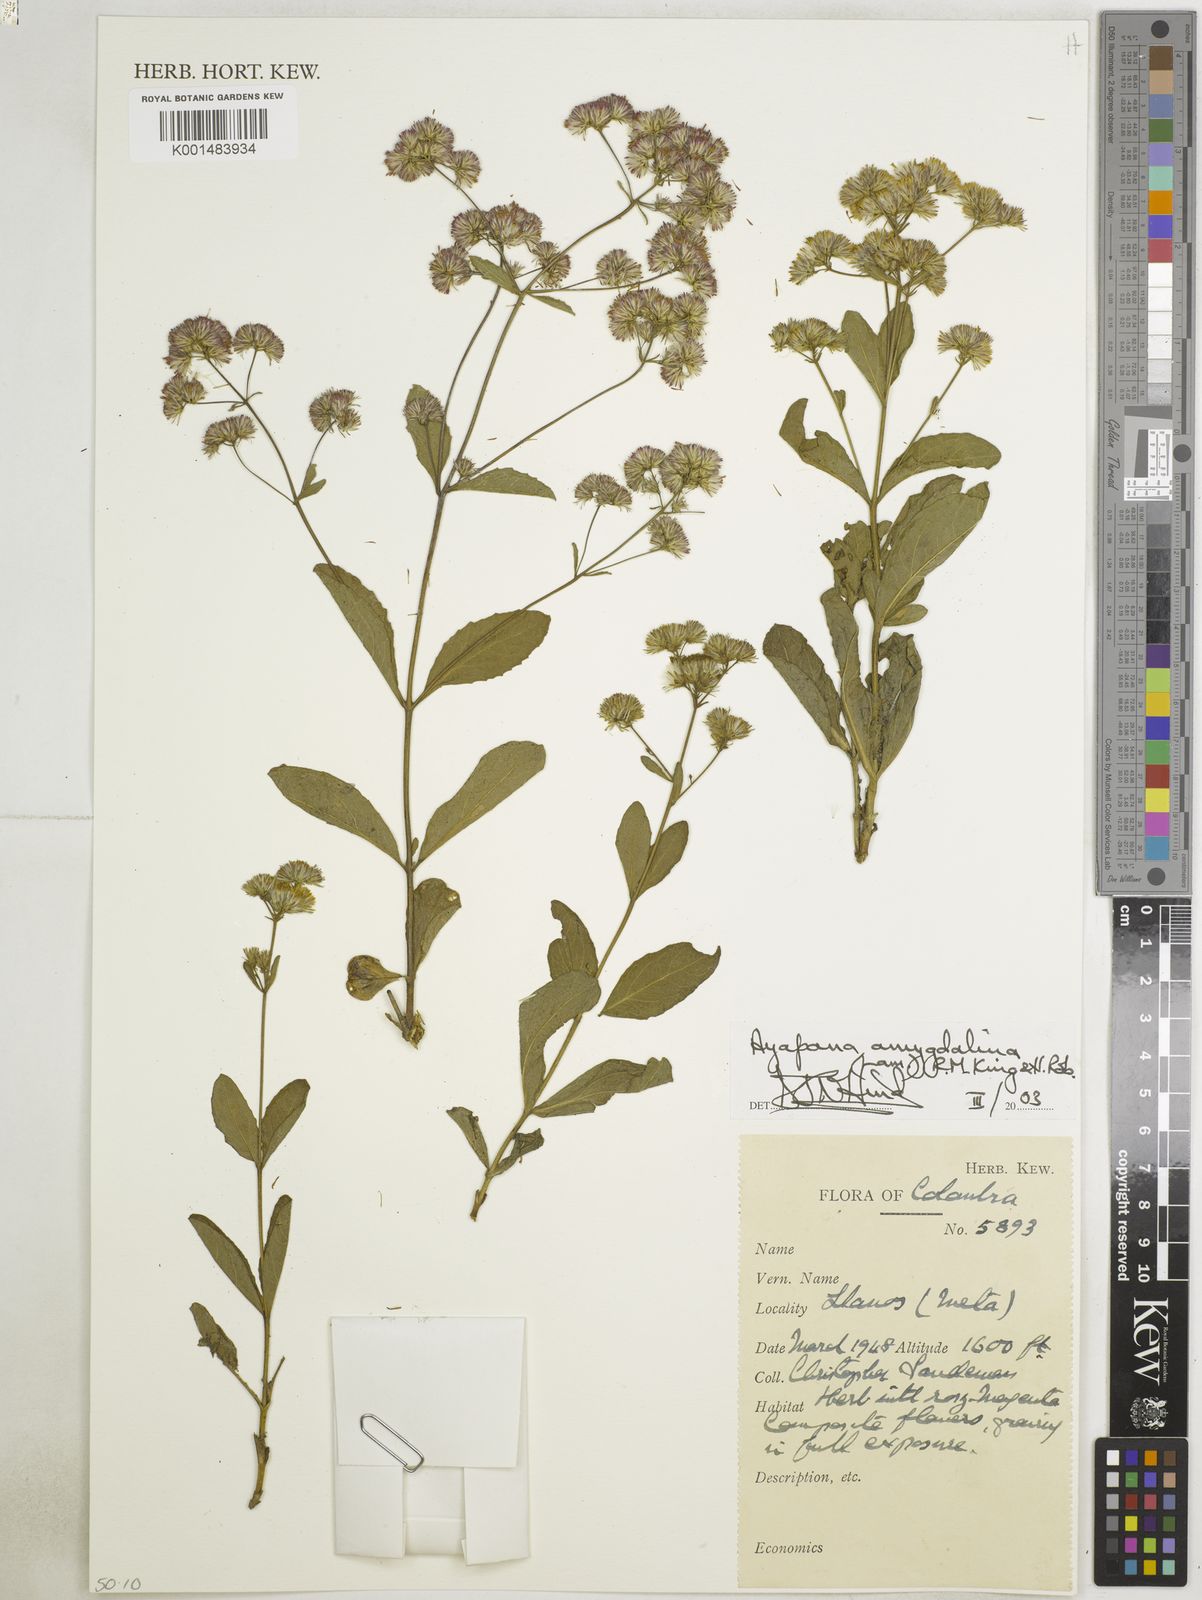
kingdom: Plantae
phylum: Tracheophyta
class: Magnoliopsida
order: Asterales
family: Asteraceae
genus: Ayapana
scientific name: Ayapana amygdalina
